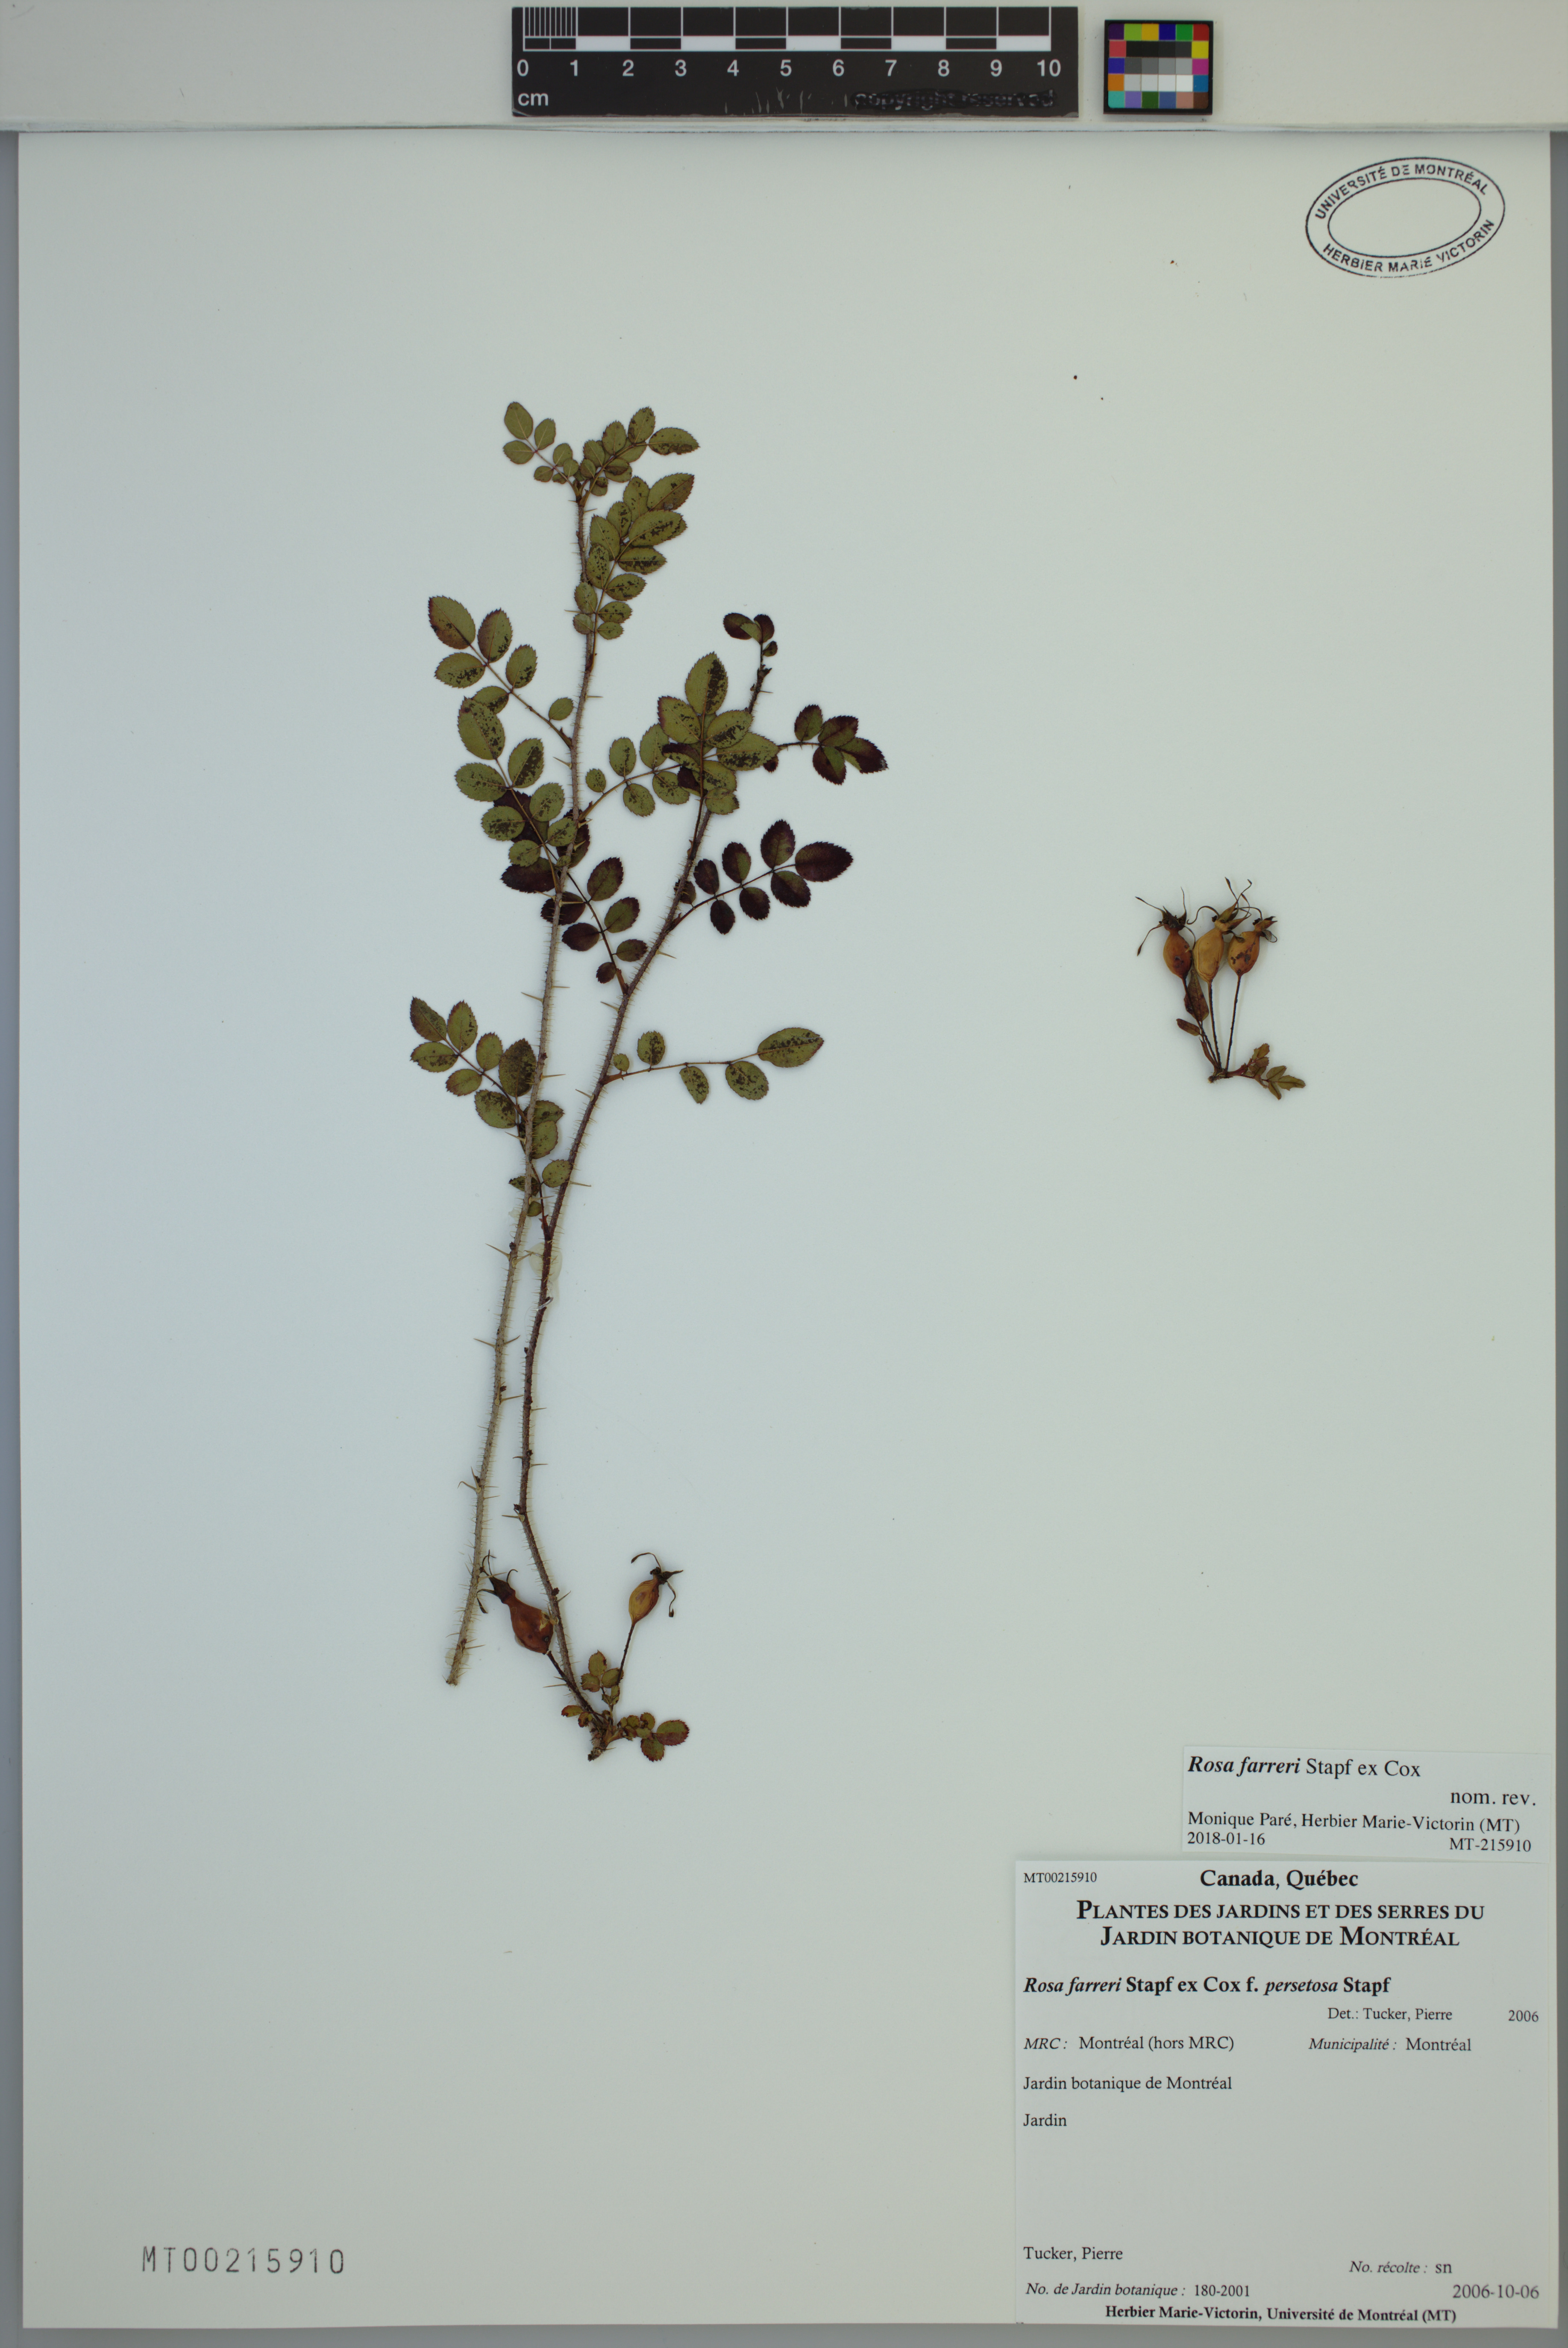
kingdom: Plantae
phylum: Tracheophyta
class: Magnoliopsida
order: Rosales
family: Rosaceae
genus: Rosa
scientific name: Rosa farreri
